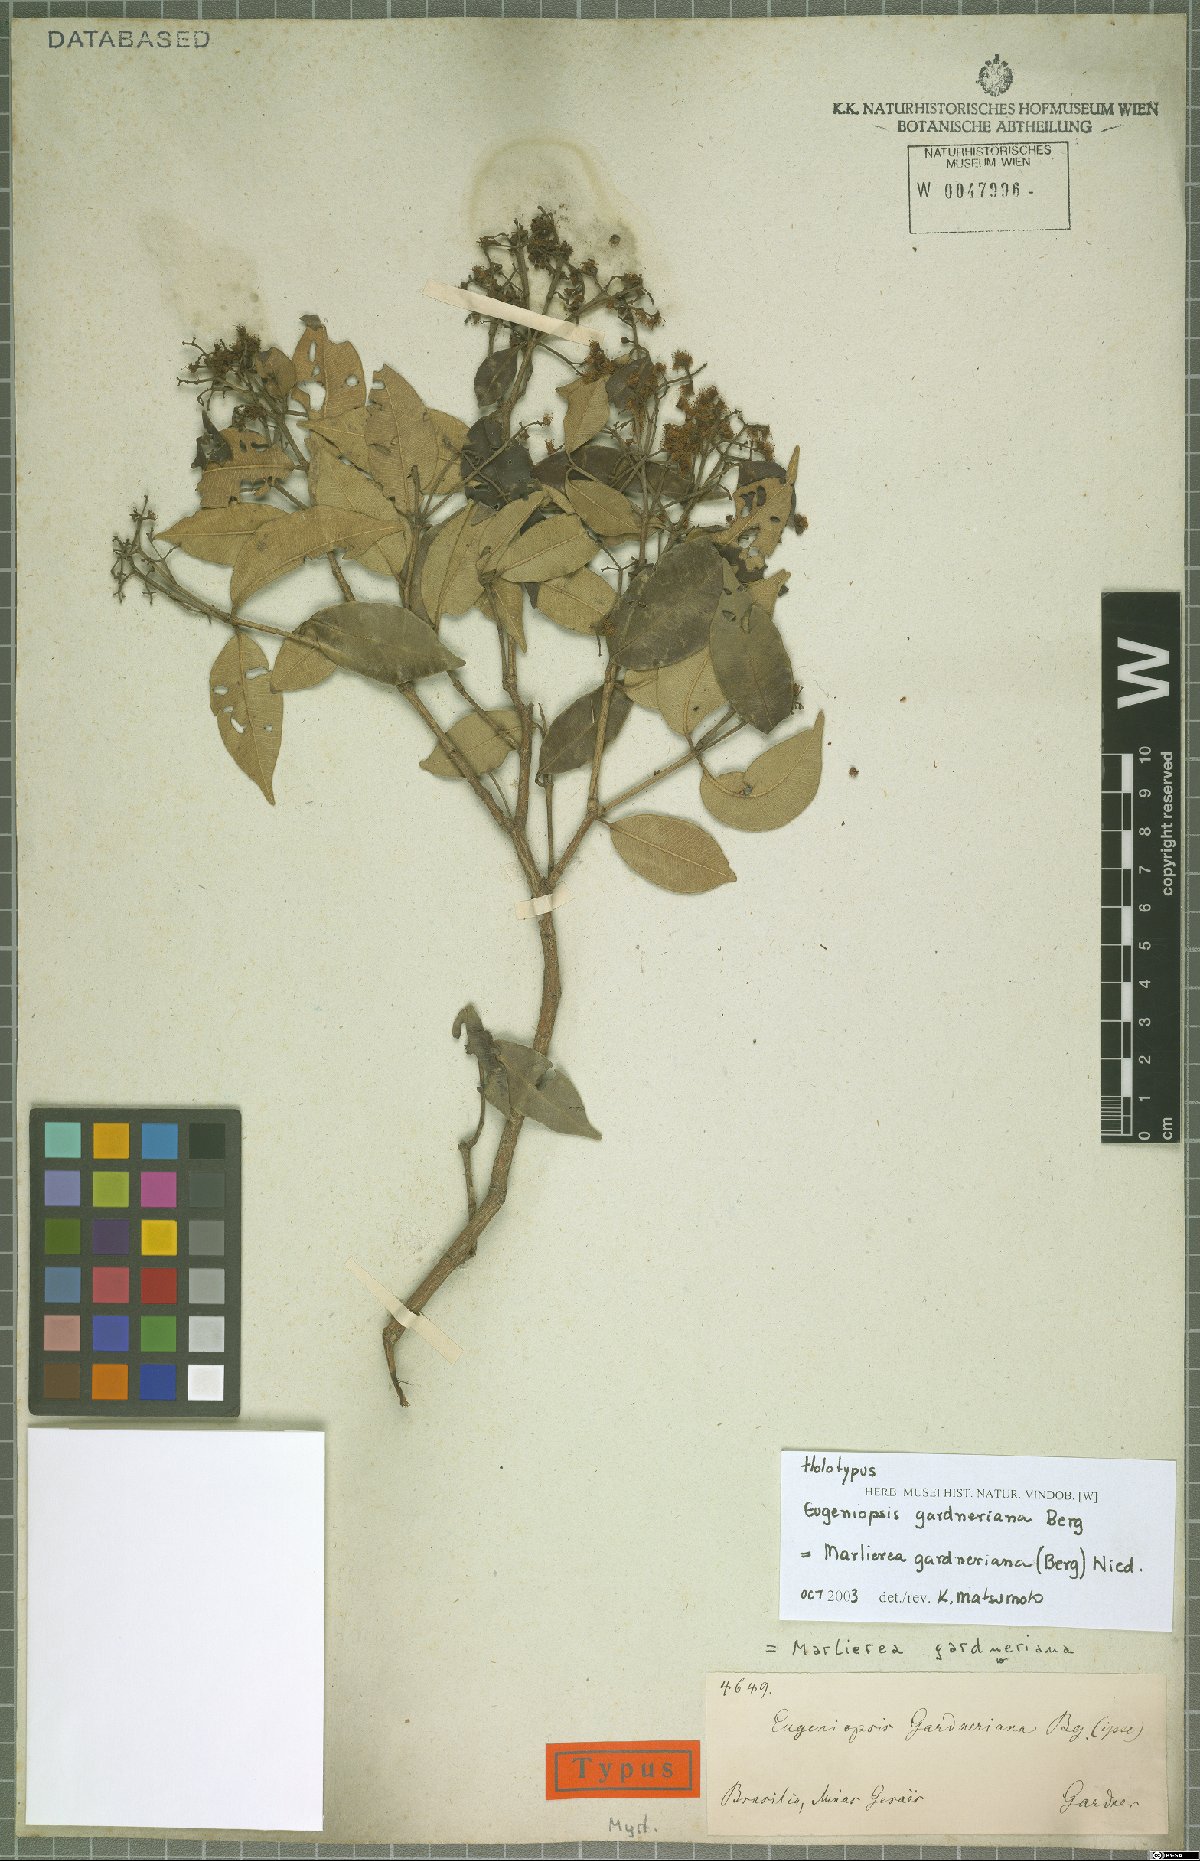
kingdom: Plantae
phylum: Tracheophyta
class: Magnoliopsida
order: Myrtales
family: Myrtaceae
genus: Marlierea
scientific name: Marlierea gardneriana
